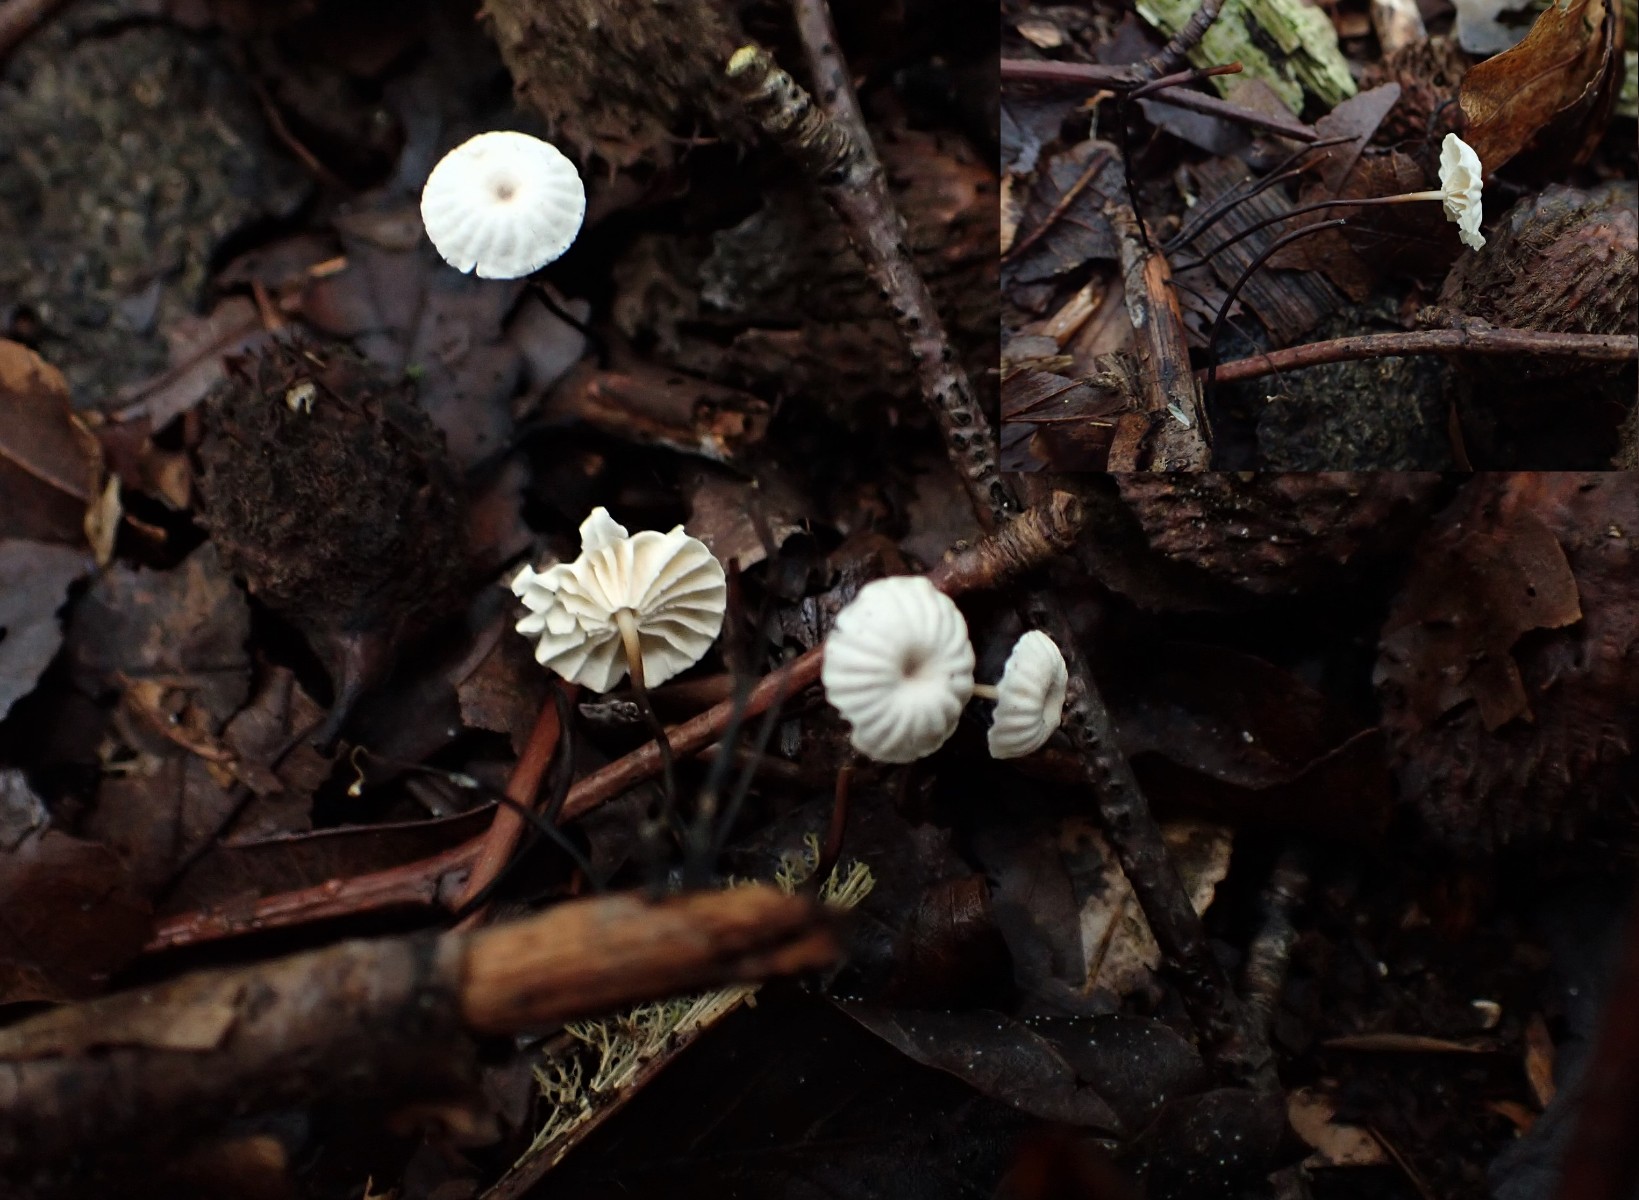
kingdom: Fungi
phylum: Basidiomycota
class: Agaricomycetes
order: Agaricales
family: Marasmiaceae
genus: Marasmius
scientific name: Marasmius rotula
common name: hjul-bruskhat
